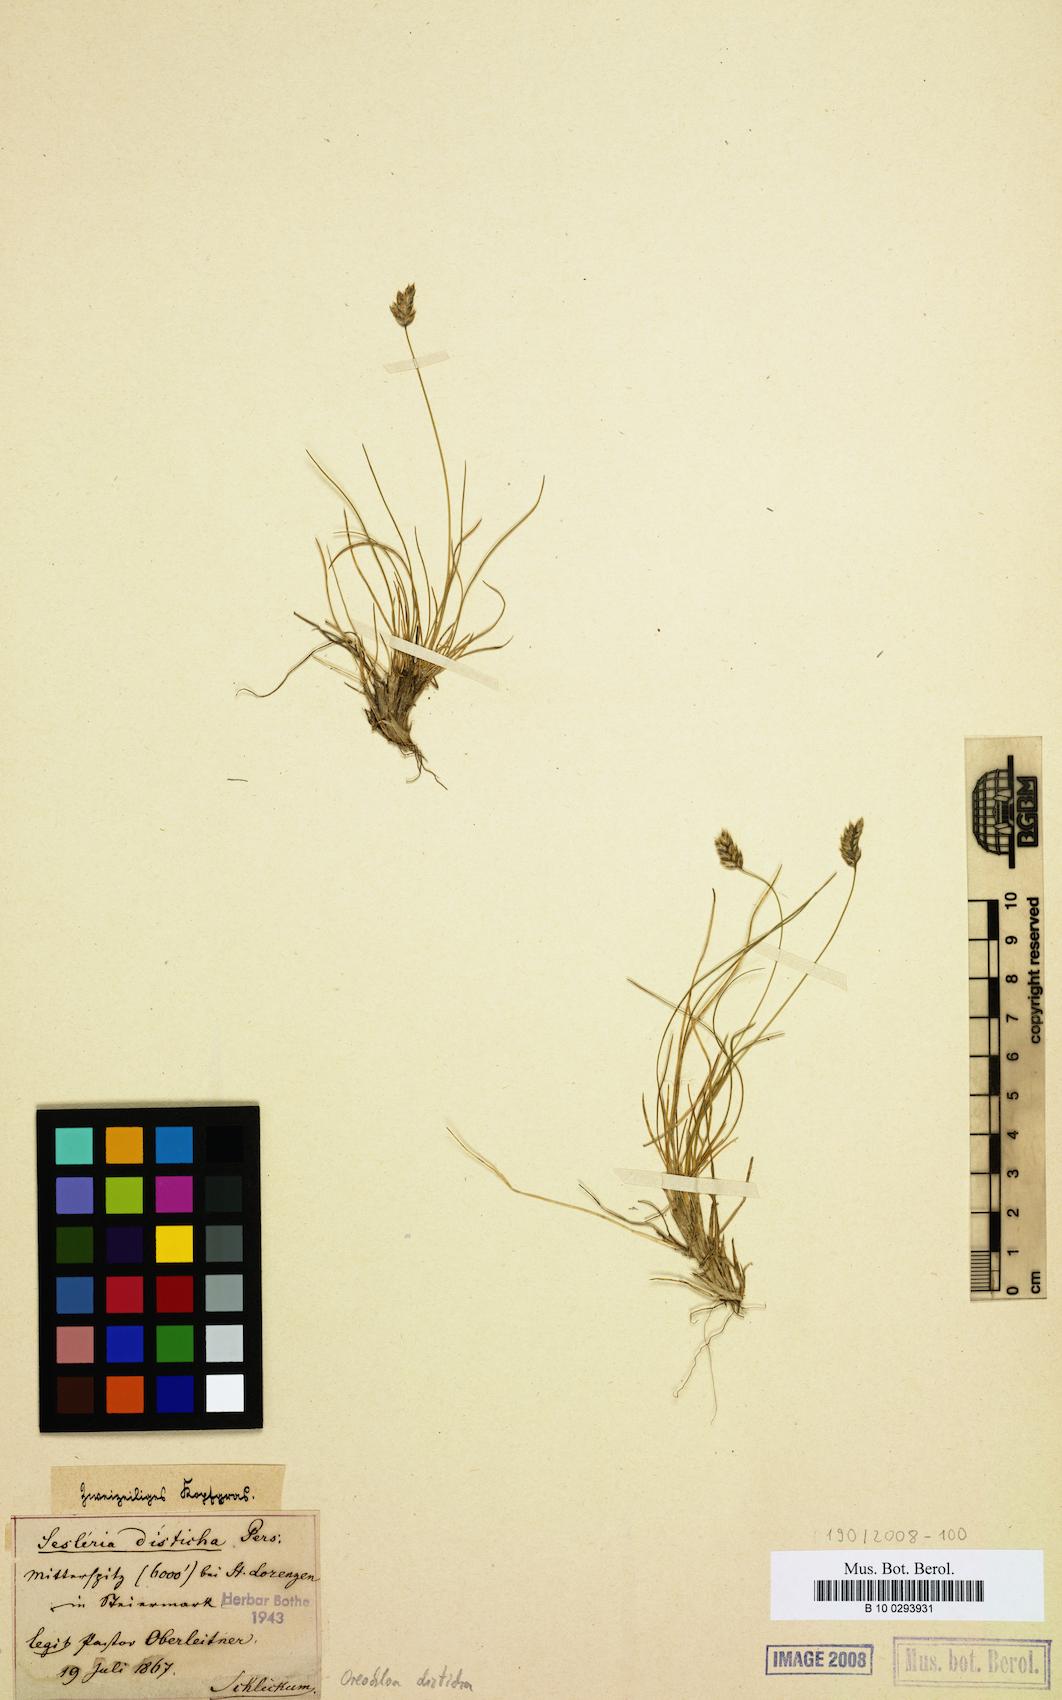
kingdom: Plantae
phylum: Tracheophyta
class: Liliopsida
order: Poales
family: Poaceae
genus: Oreochloa
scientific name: Oreochloa disticha
